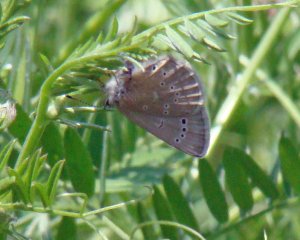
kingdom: Animalia
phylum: Arthropoda
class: Insecta
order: Lepidoptera
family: Lycaenidae
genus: Glaucopsyche
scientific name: Glaucopsyche lygdamus
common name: Silvery Blue
